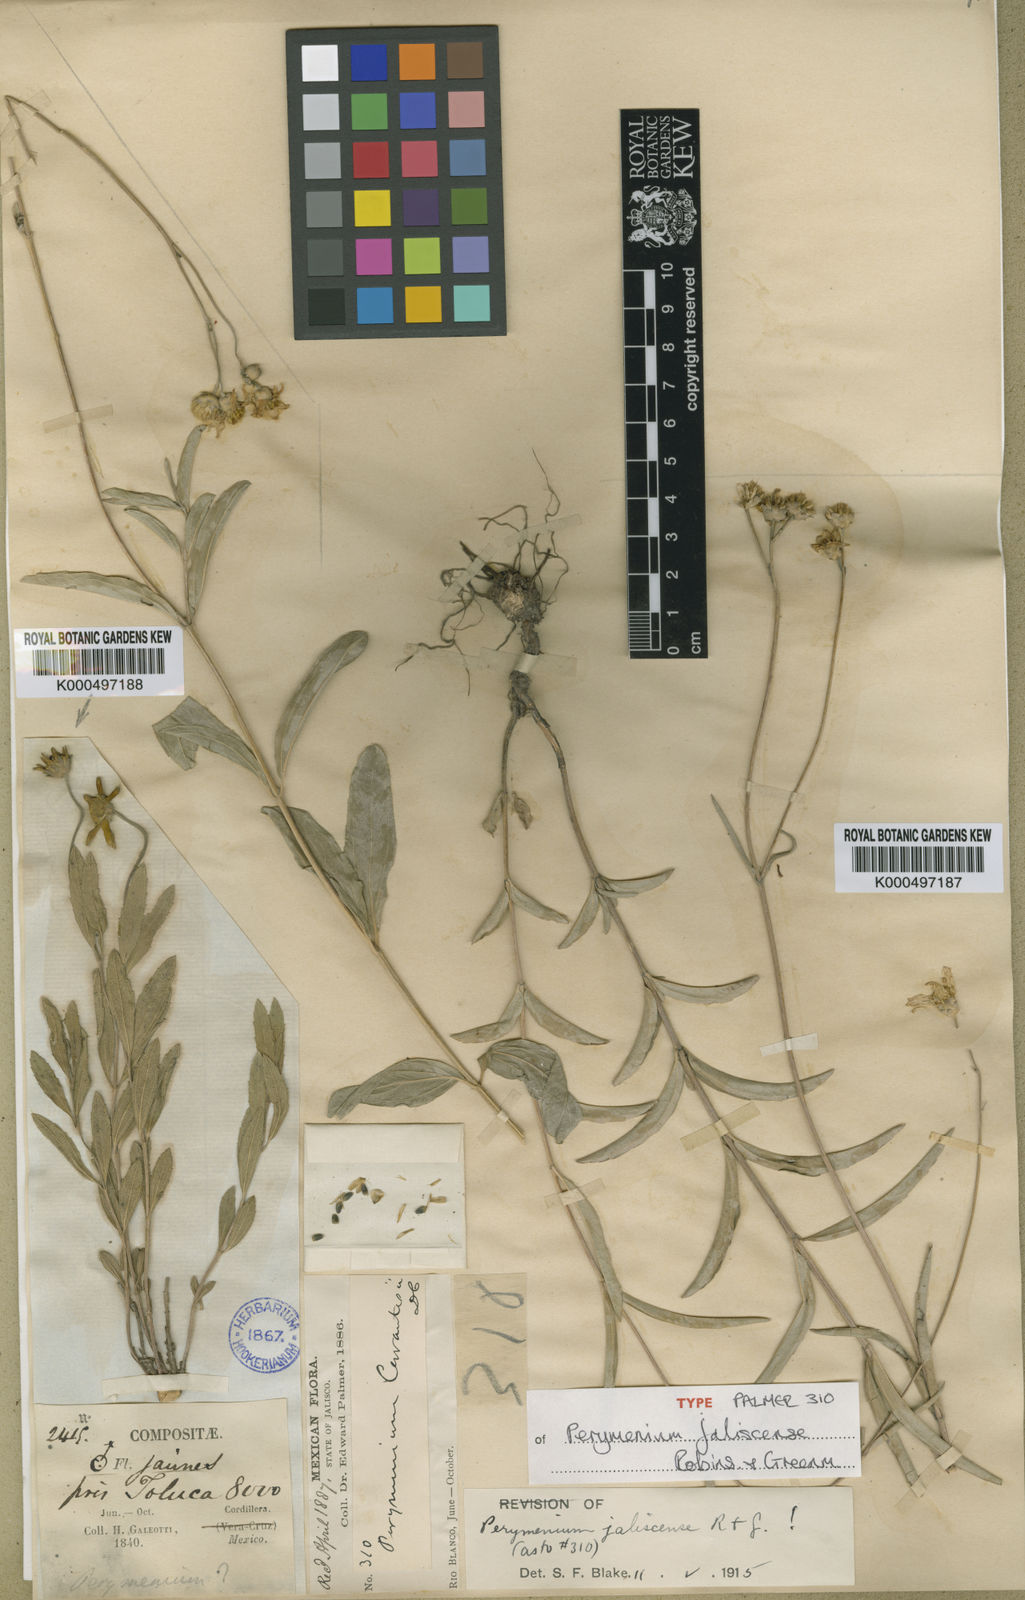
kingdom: Plantae
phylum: Tracheophyta
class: Magnoliopsida
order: Asterales
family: Asteraceae
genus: Perymenium
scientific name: Perymenium jaliscense
